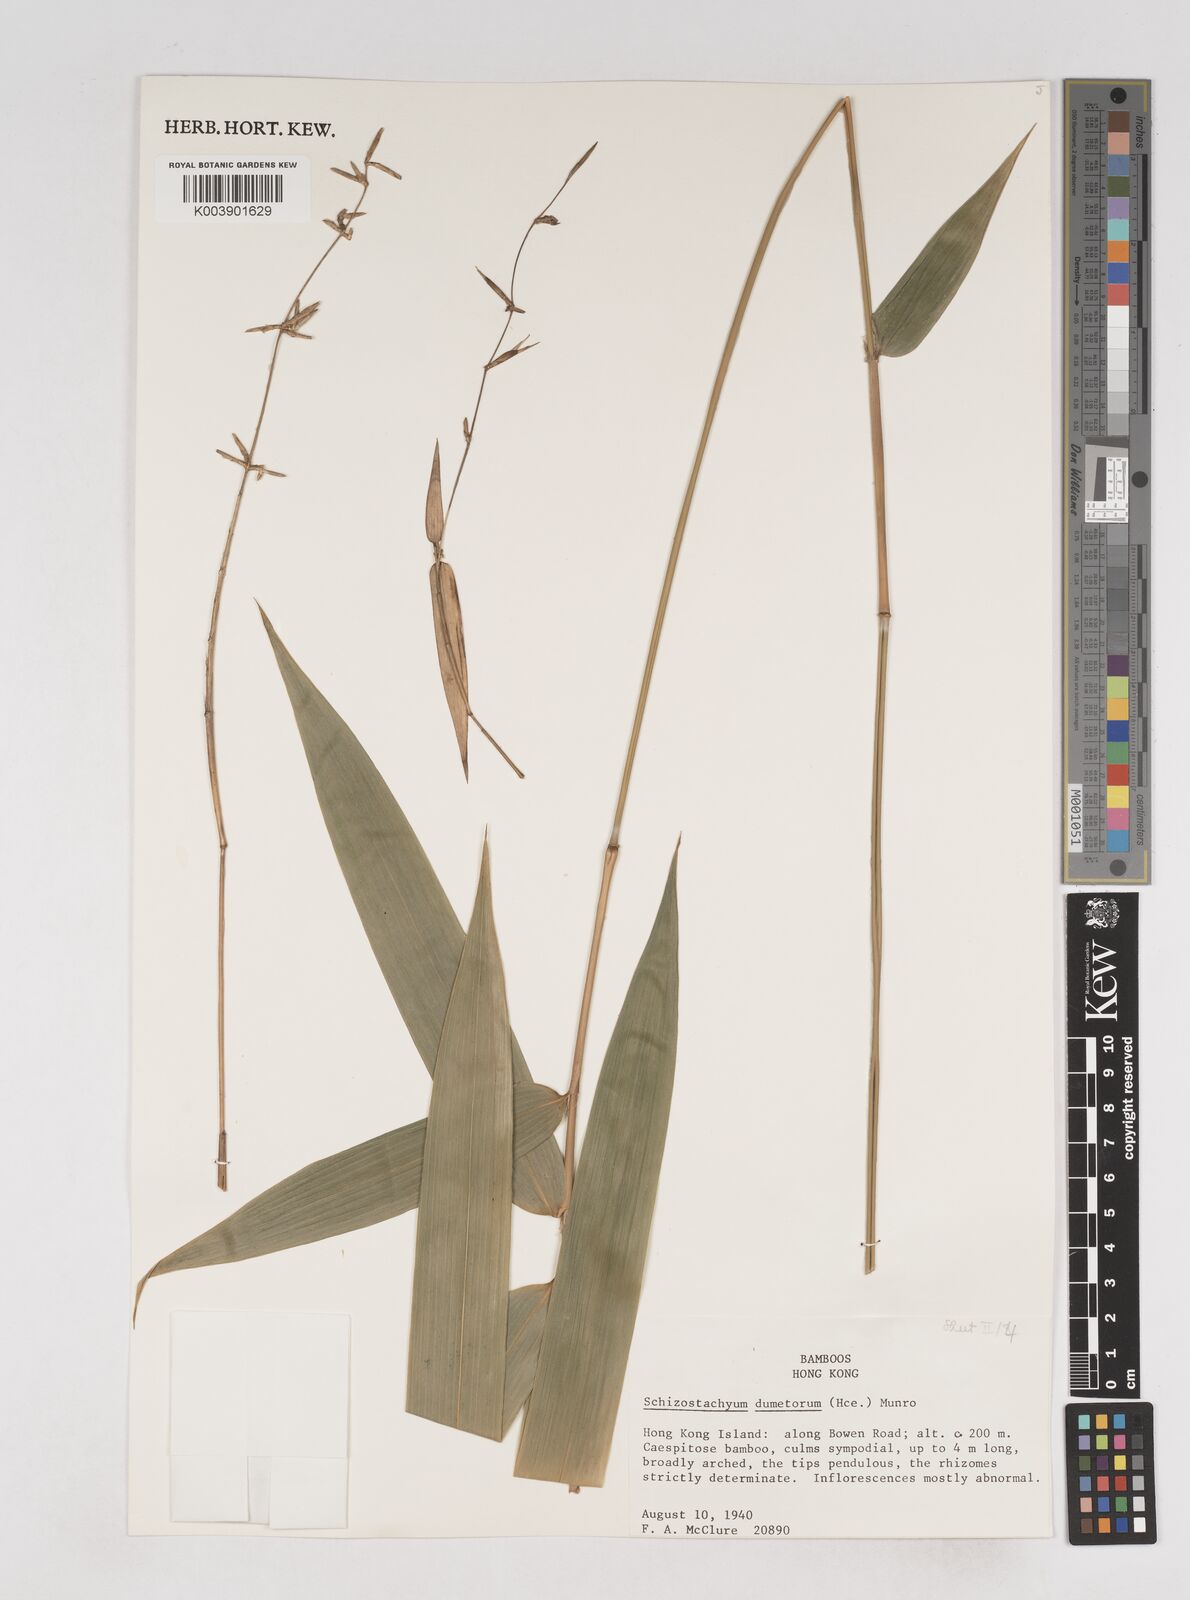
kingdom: Plantae
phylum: Tracheophyta
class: Liliopsida
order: Poales
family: Poaceae
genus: Schizostachyum
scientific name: Schizostachyum dumetorum
